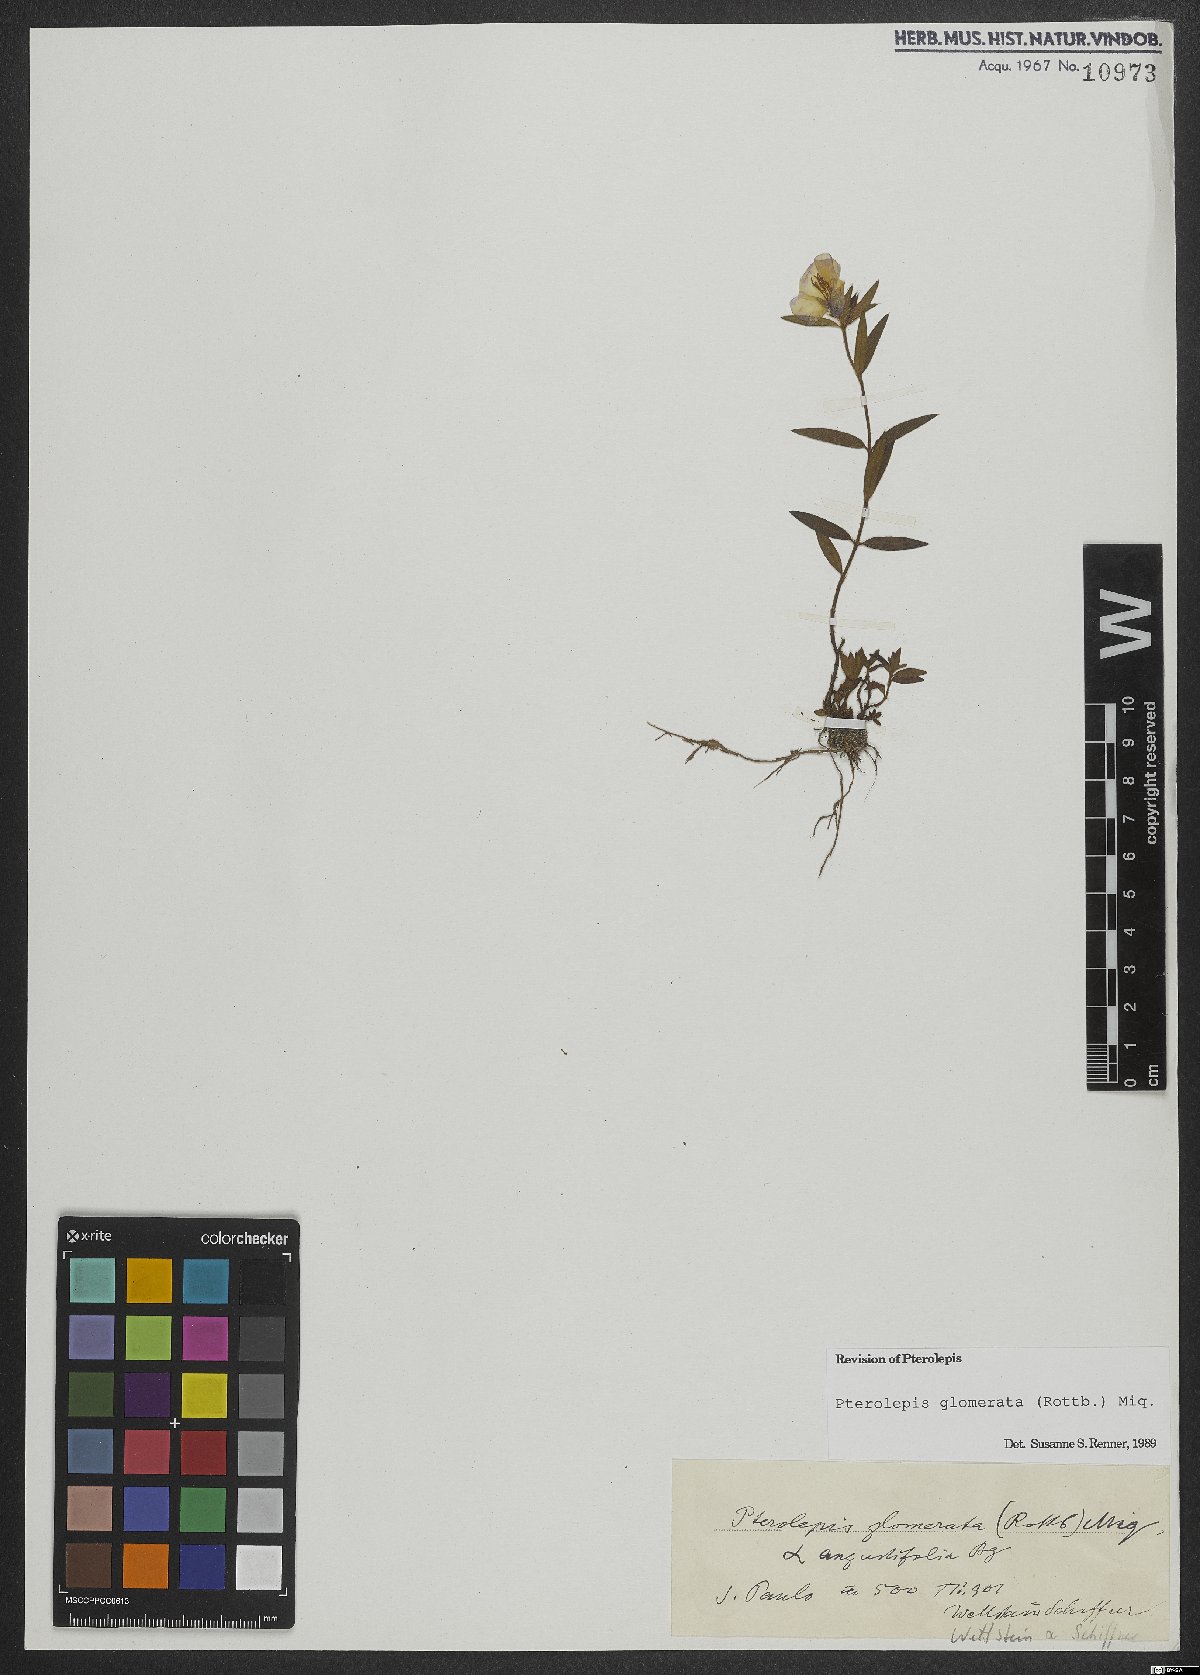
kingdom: Plantae
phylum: Tracheophyta
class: Magnoliopsida
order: Myrtales
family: Melastomataceae
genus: Pterolepis
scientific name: Pterolepis glomerata
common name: False meadowbeauty
